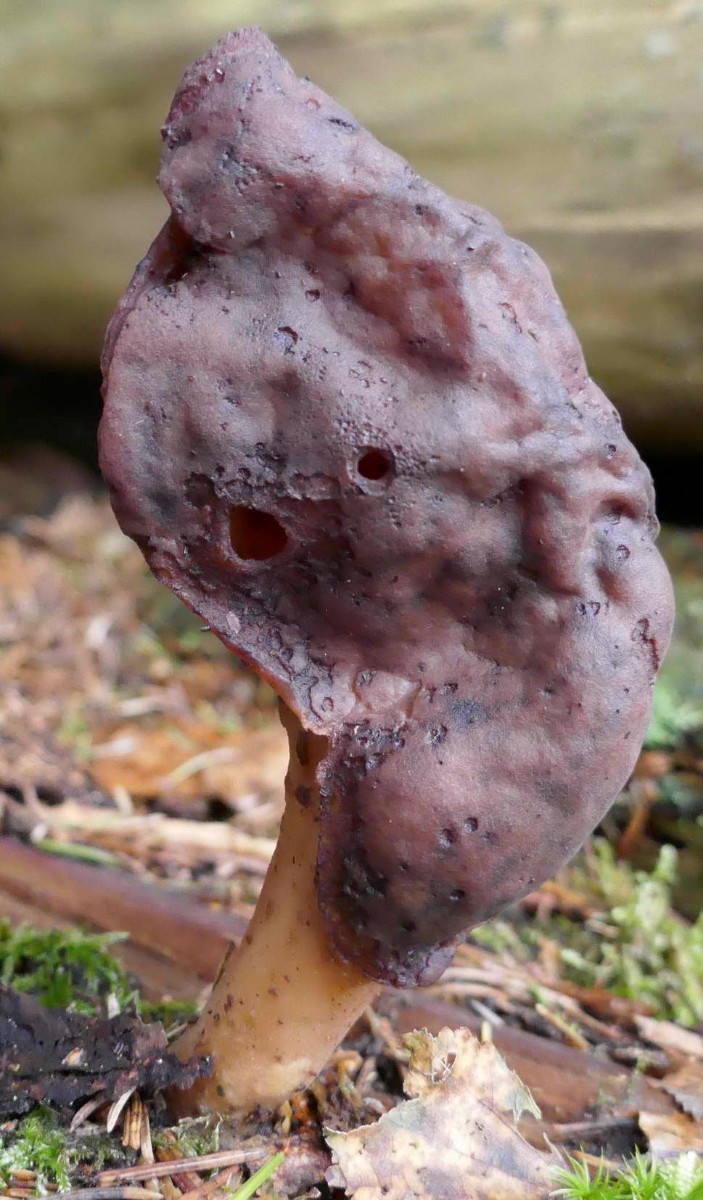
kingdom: Fungi
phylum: Ascomycota
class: Pezizomycetes
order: Pezizales
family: Discinaceae
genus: Gyromitra
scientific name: Gyromitra infula
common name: bispehue-stenmorkel
